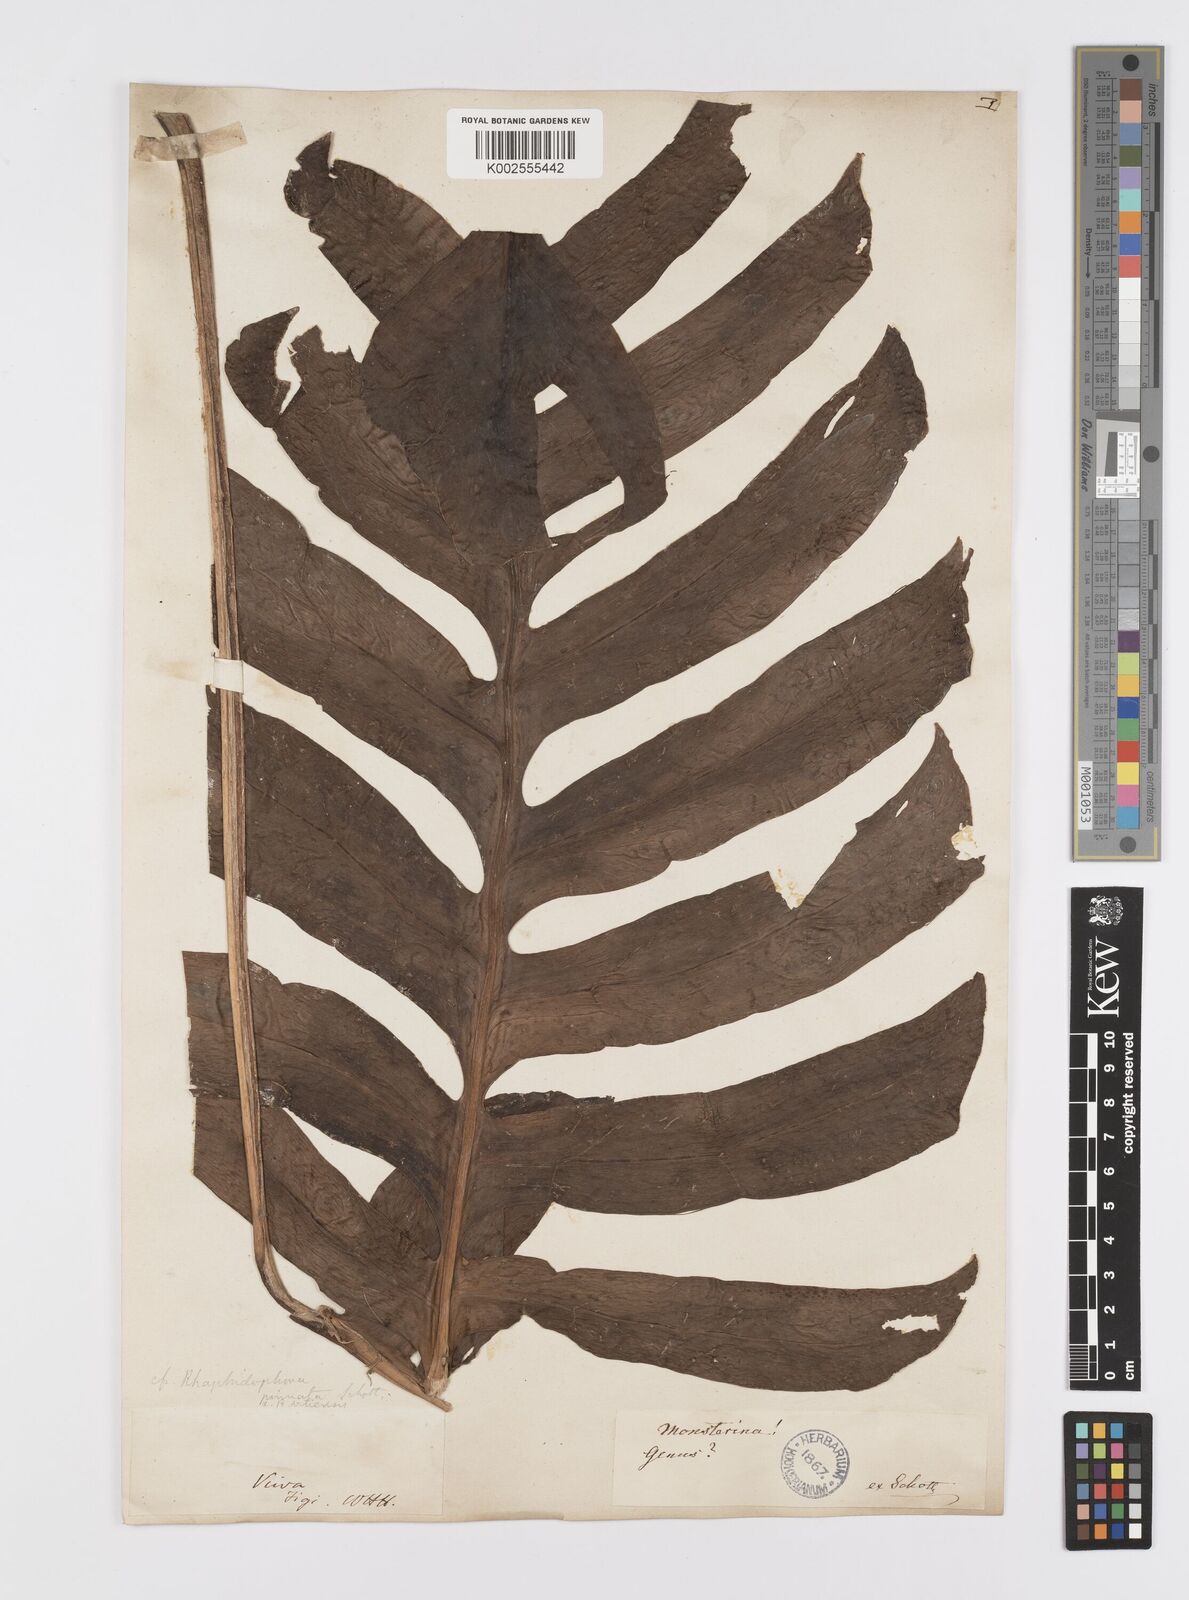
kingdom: Plantae
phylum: Tracheophyta
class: Liliopsida
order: Alismatales
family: Araceae
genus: Epipremnum
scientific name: Epipremnum pinnatum
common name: Centipede tongavine
